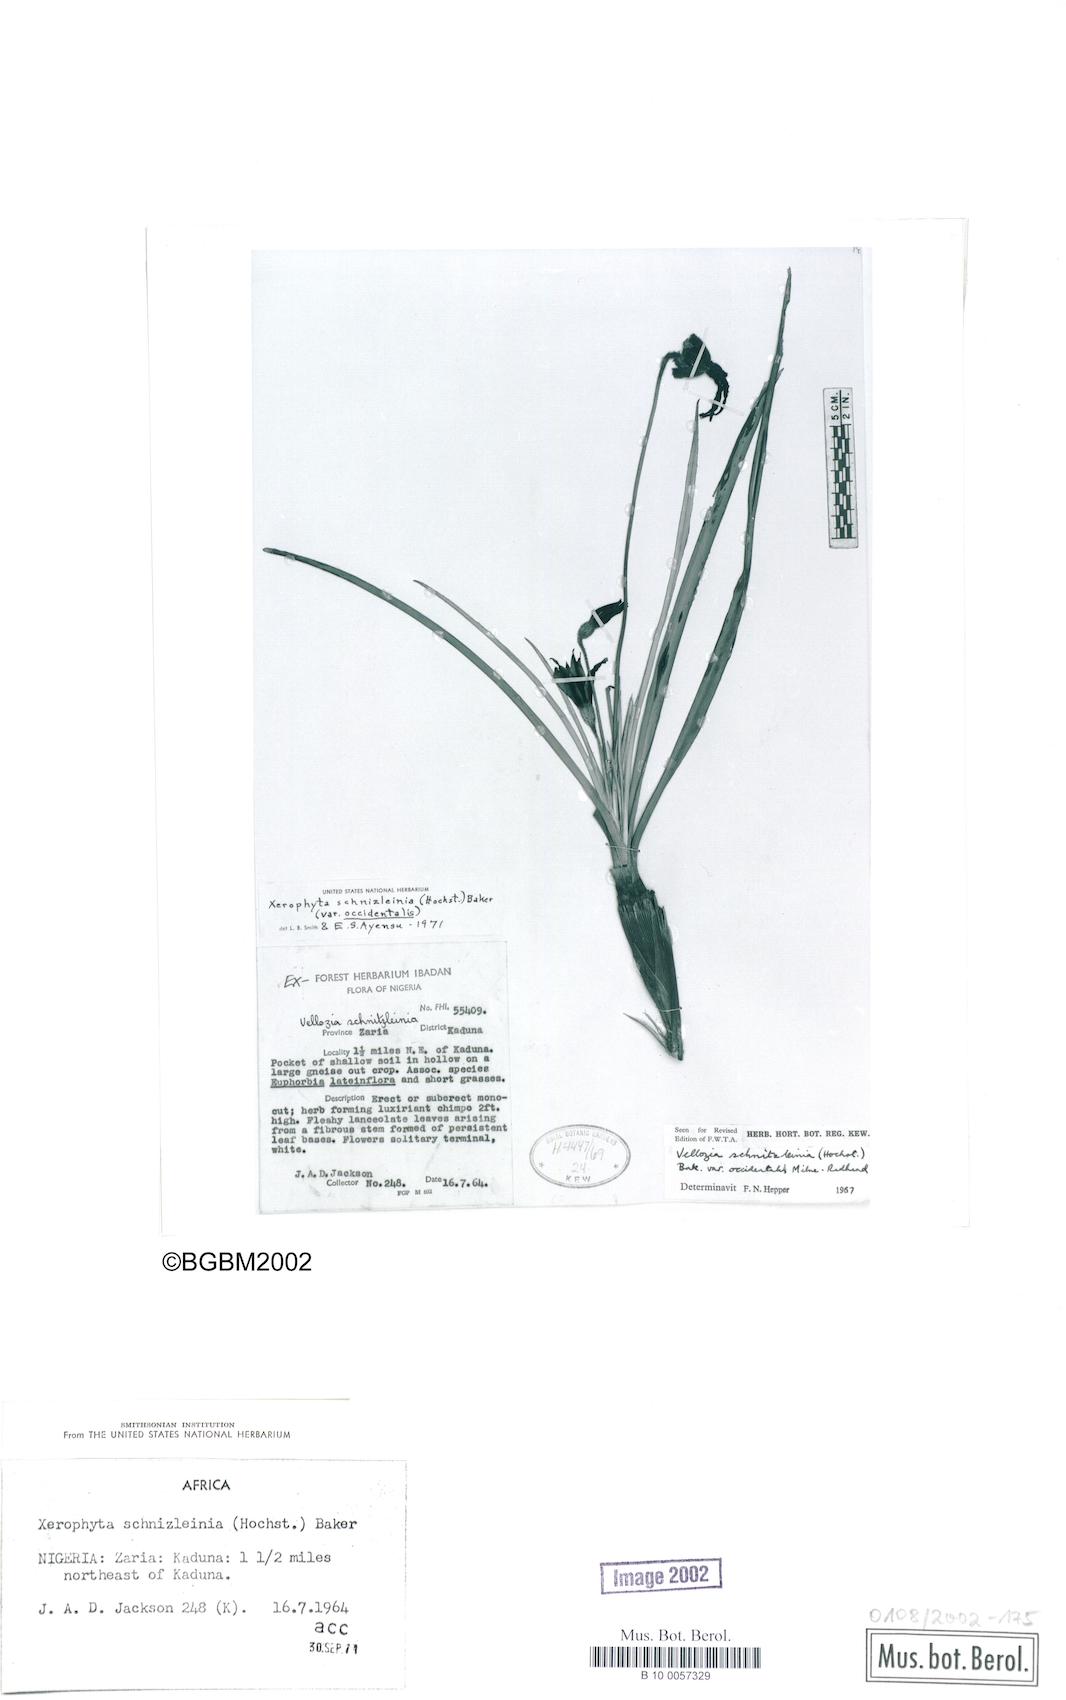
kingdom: Plantae
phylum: Tracheophyta
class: Liliopsida
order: Pandanales
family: Velloziaceae
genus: Xerophyta
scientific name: Xerophyta schnizleinia
